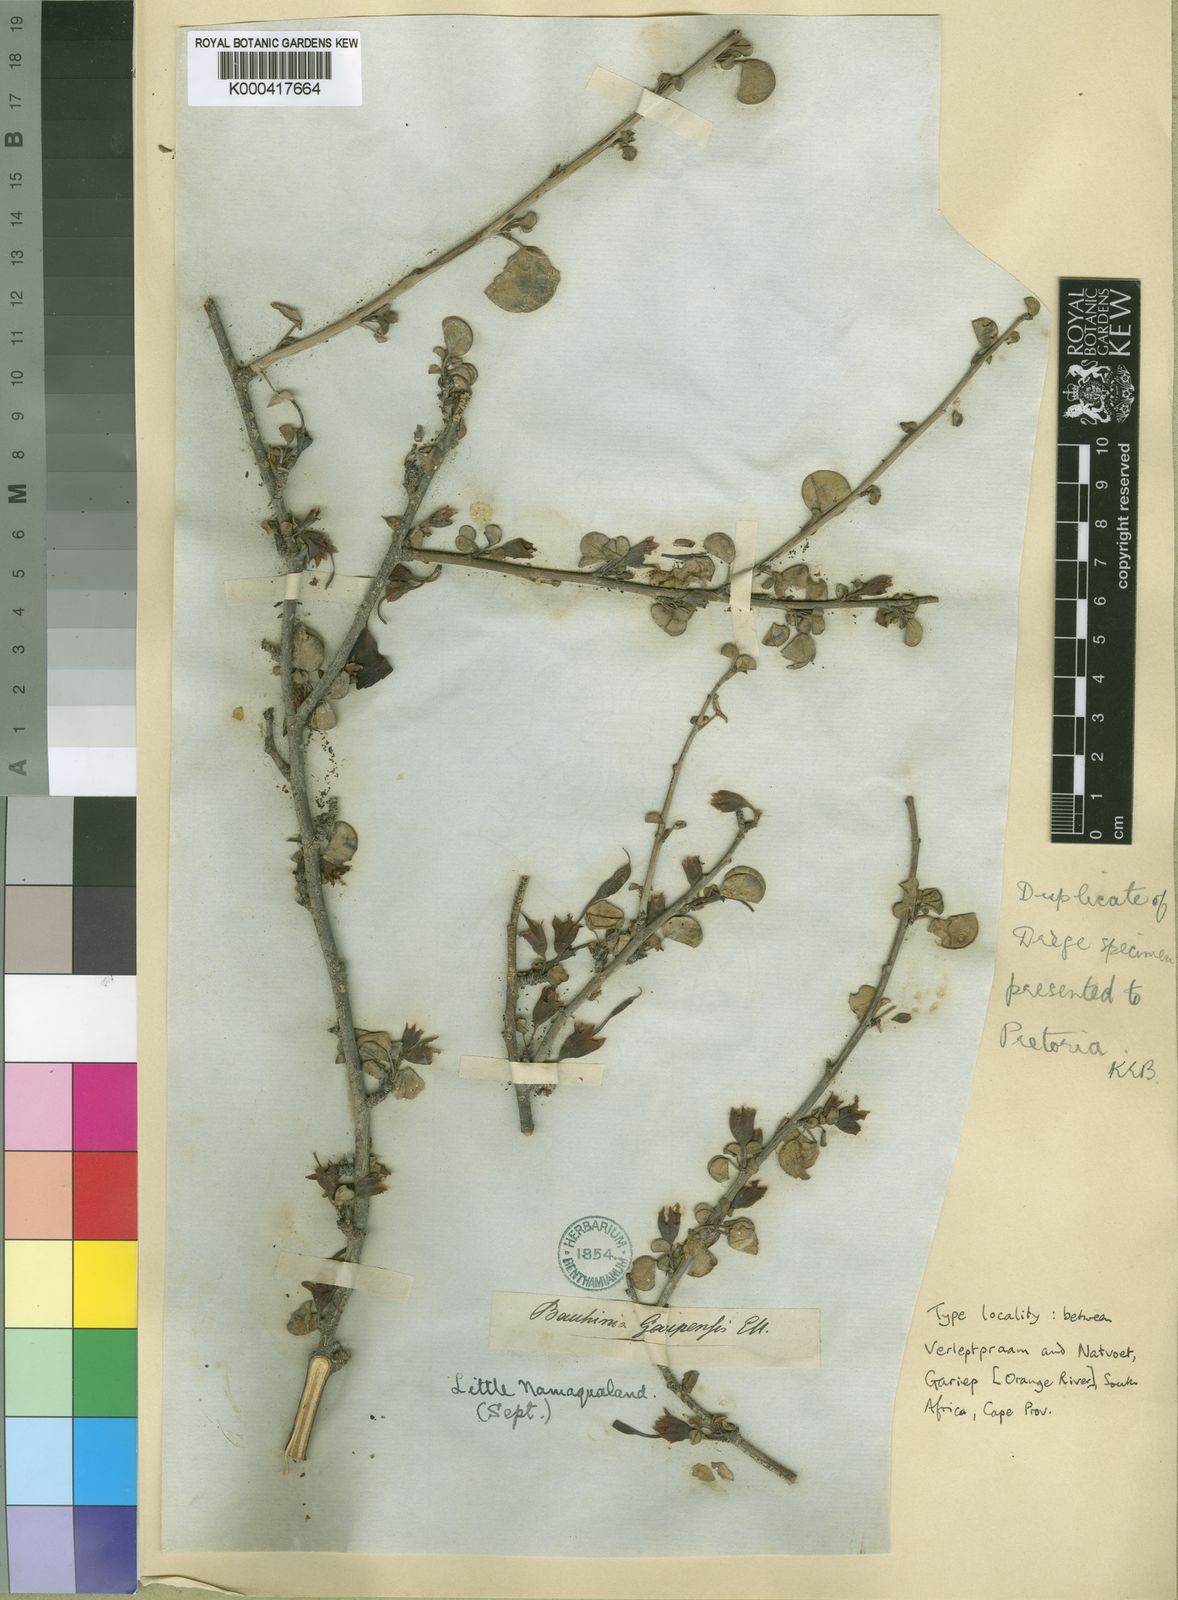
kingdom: Plantae
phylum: Tracheophyta
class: Magnoliopsida
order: Fabales
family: Fabaceae
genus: Adenolobus
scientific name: Adenolobus garipensis
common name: Butterfly-leaf
